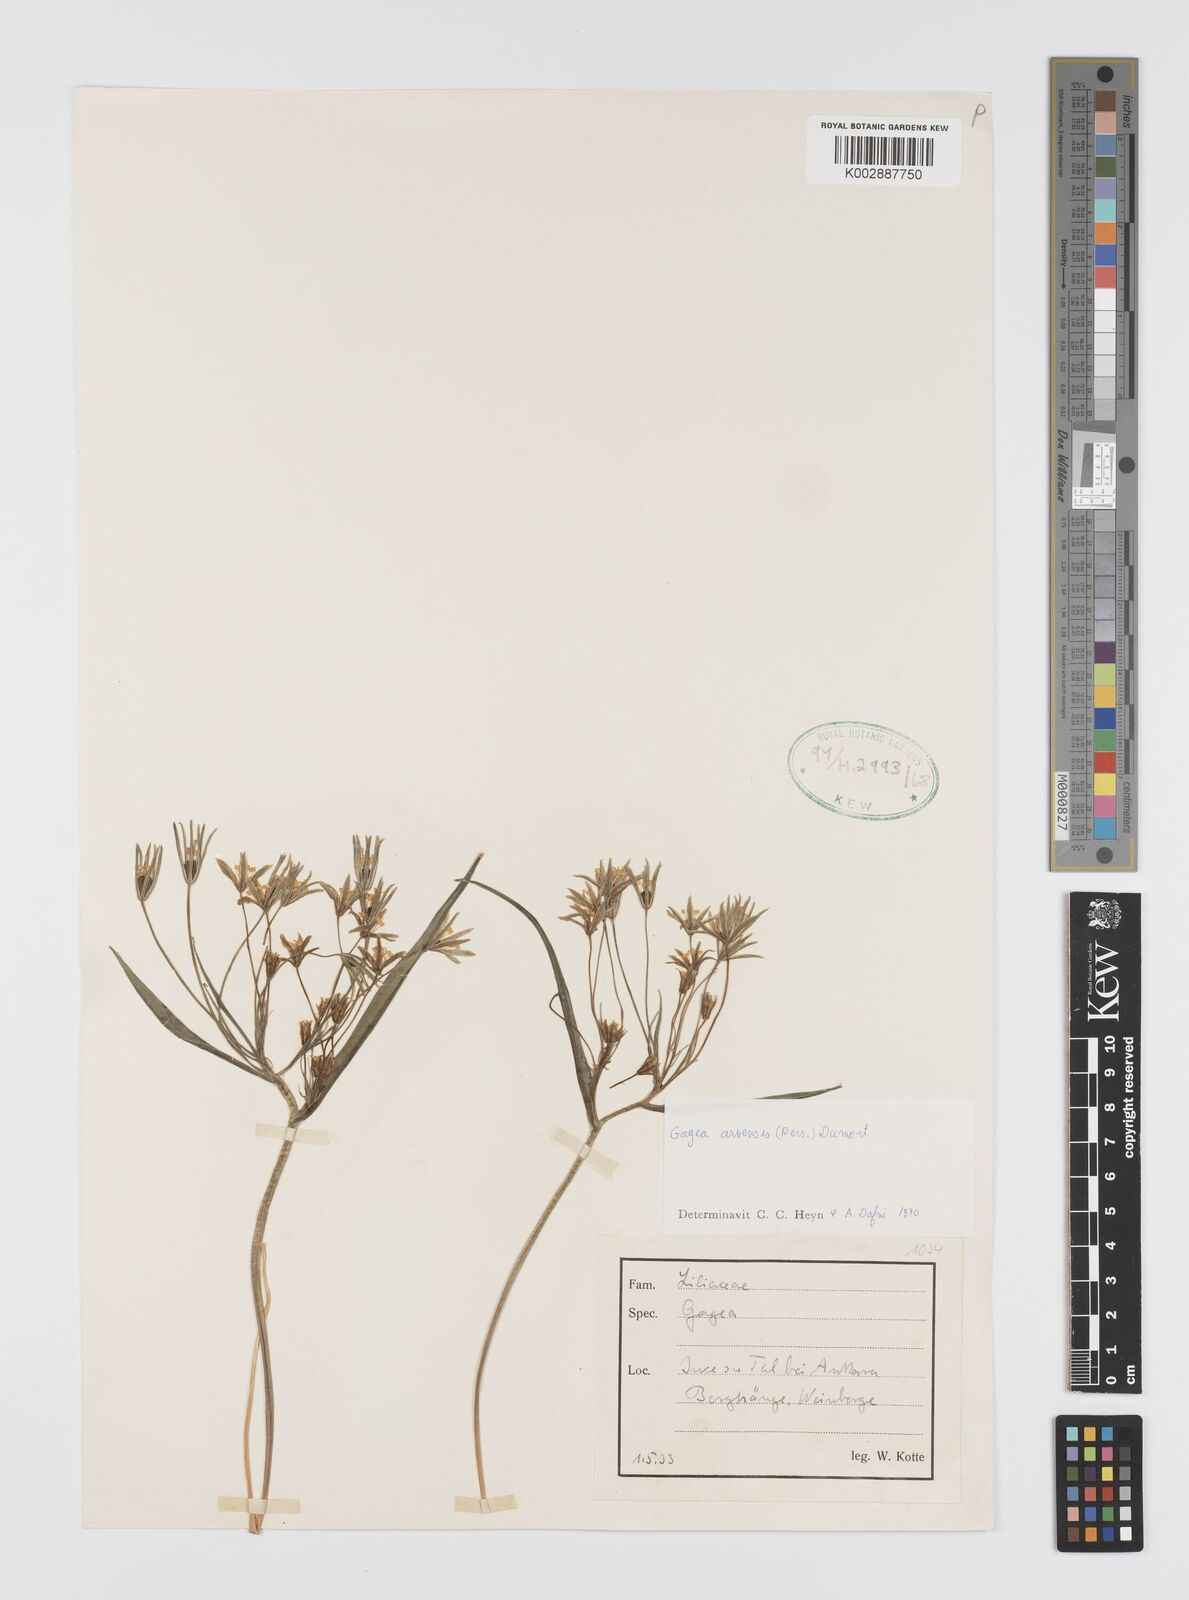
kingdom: Plantae
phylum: Tracheophyta
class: Liliopsida
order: Liliales
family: Liliaceae
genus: Gagea
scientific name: Gagea minima
